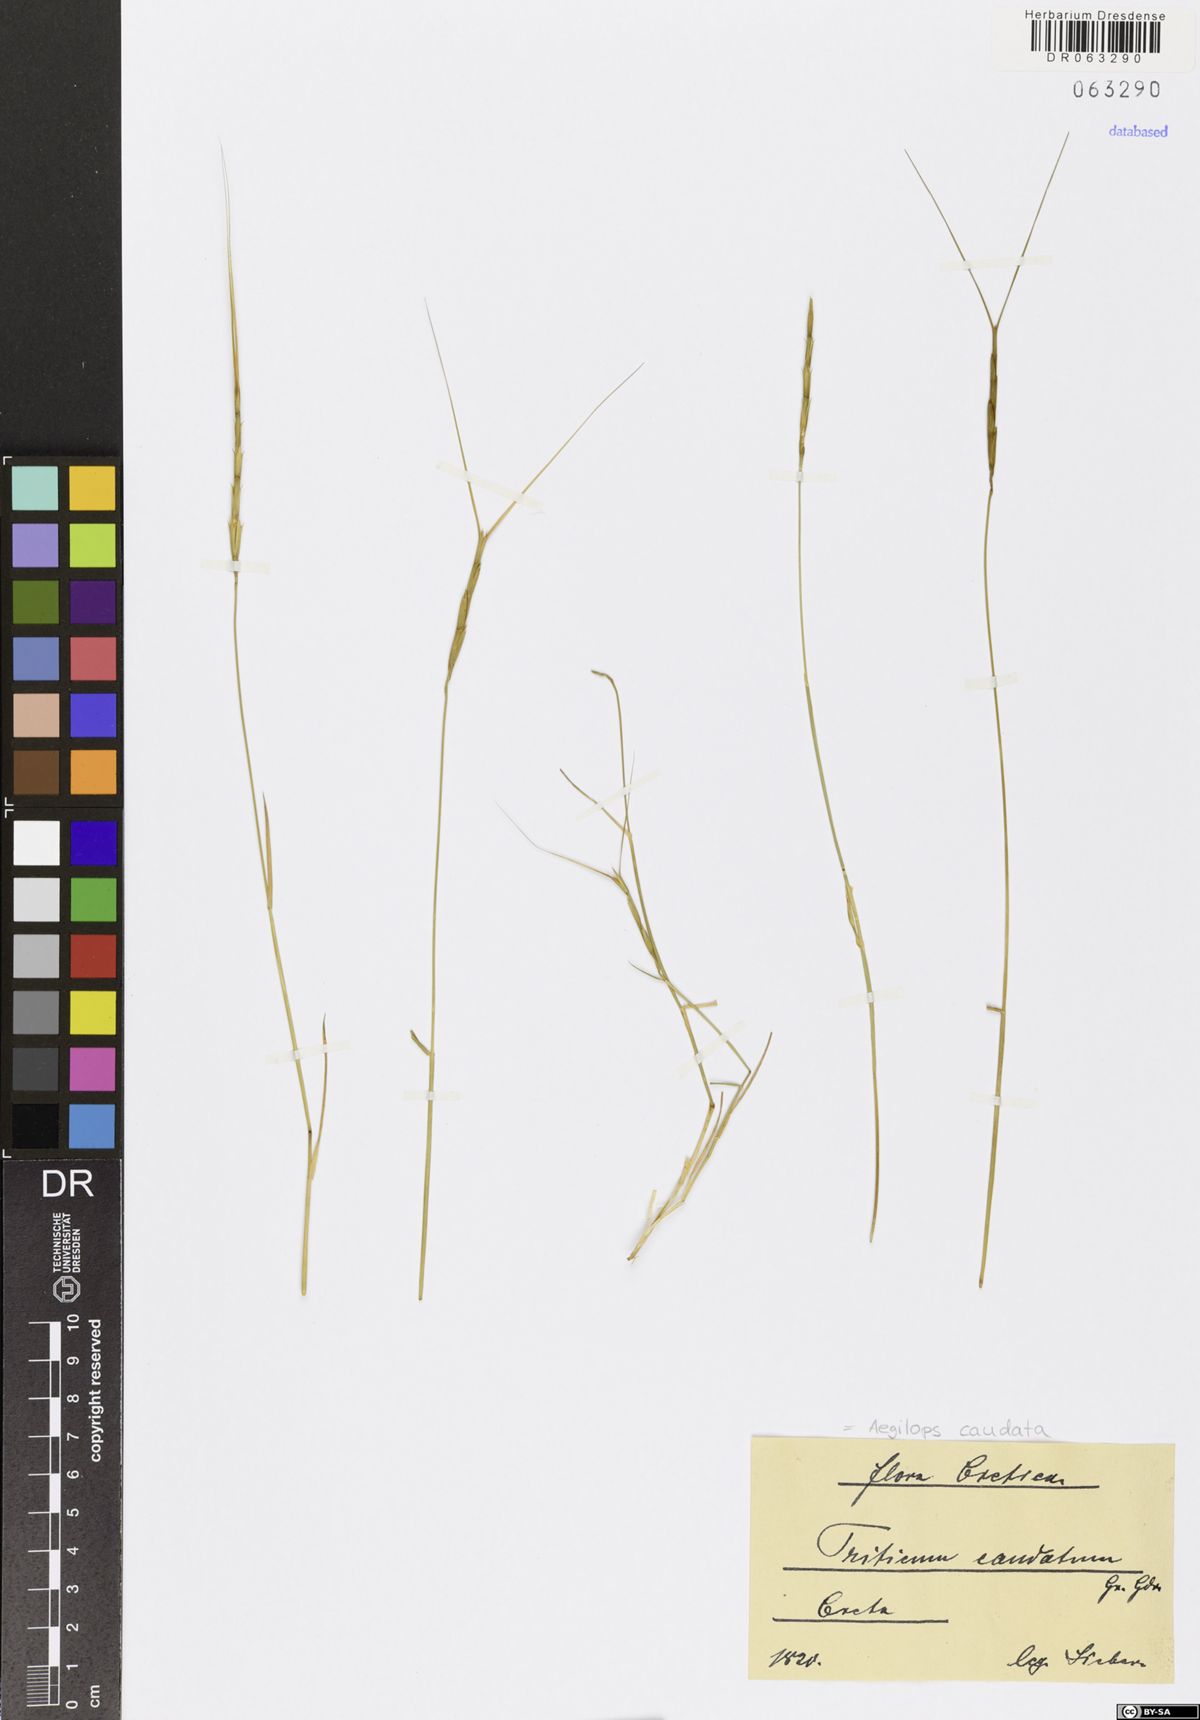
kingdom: Plantae
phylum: Tracheophyta
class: Liliopsida
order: Poales
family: Poaceae
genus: Aegilops
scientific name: Aegilops caudata
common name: Cretan hard-grass
